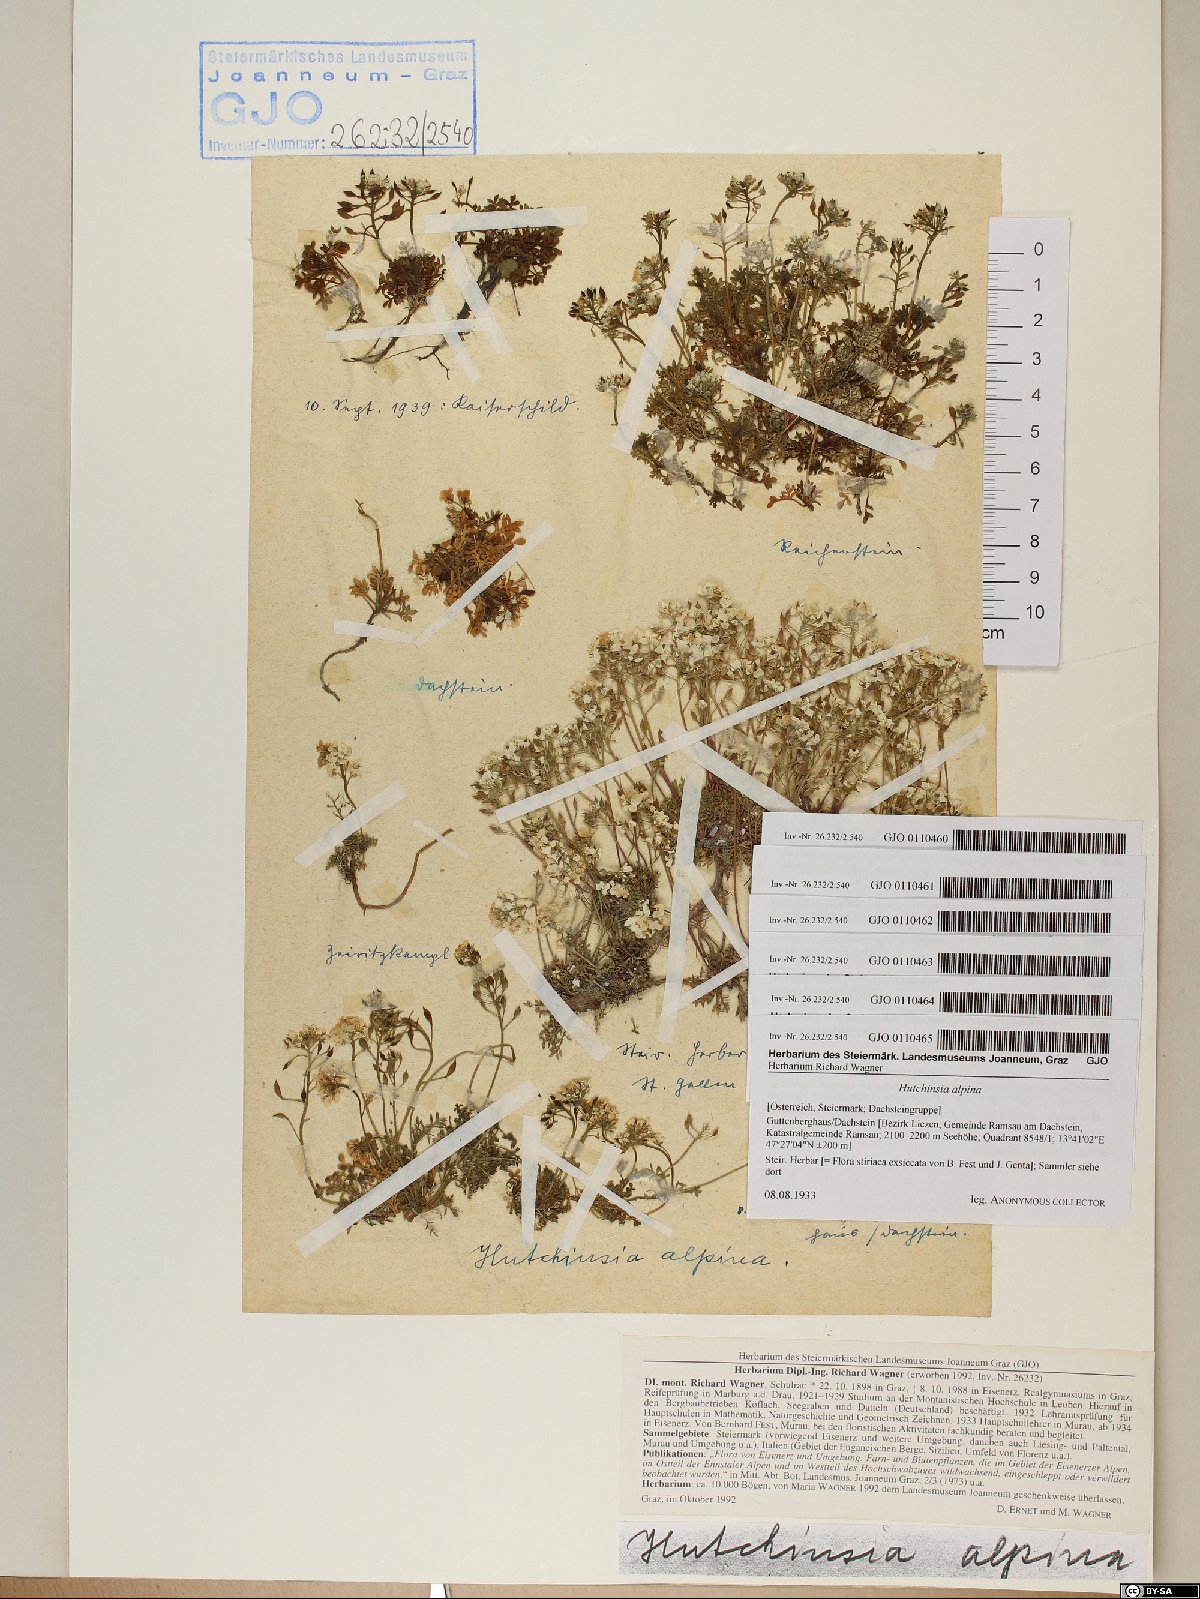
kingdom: Plantae
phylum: Tracheophyta
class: Magnoliopsida
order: Brassicales
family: Brassicaceae
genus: Hornungia
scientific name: Hornungia alpina
